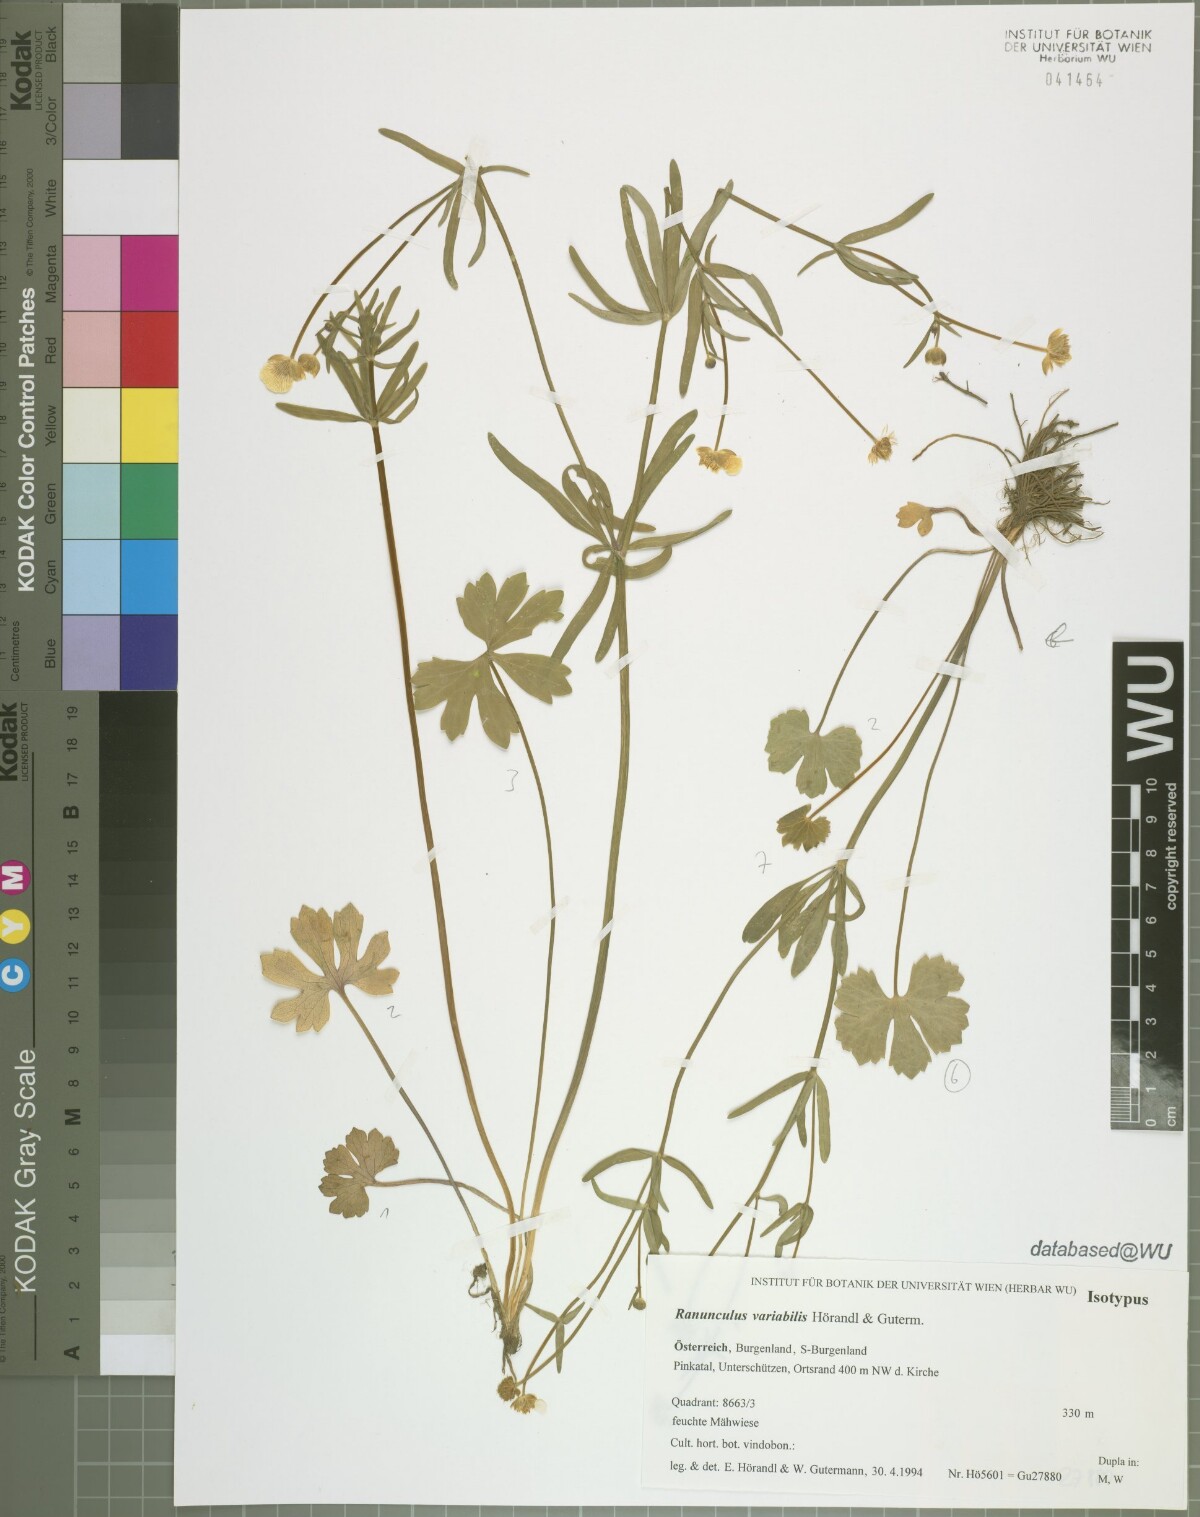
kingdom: Plantae
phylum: Tracheophyta
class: Magnoliopsida
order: Ranunculales
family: Ranunculaceae
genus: Ranunculus
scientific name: Ranunculus variabilis
